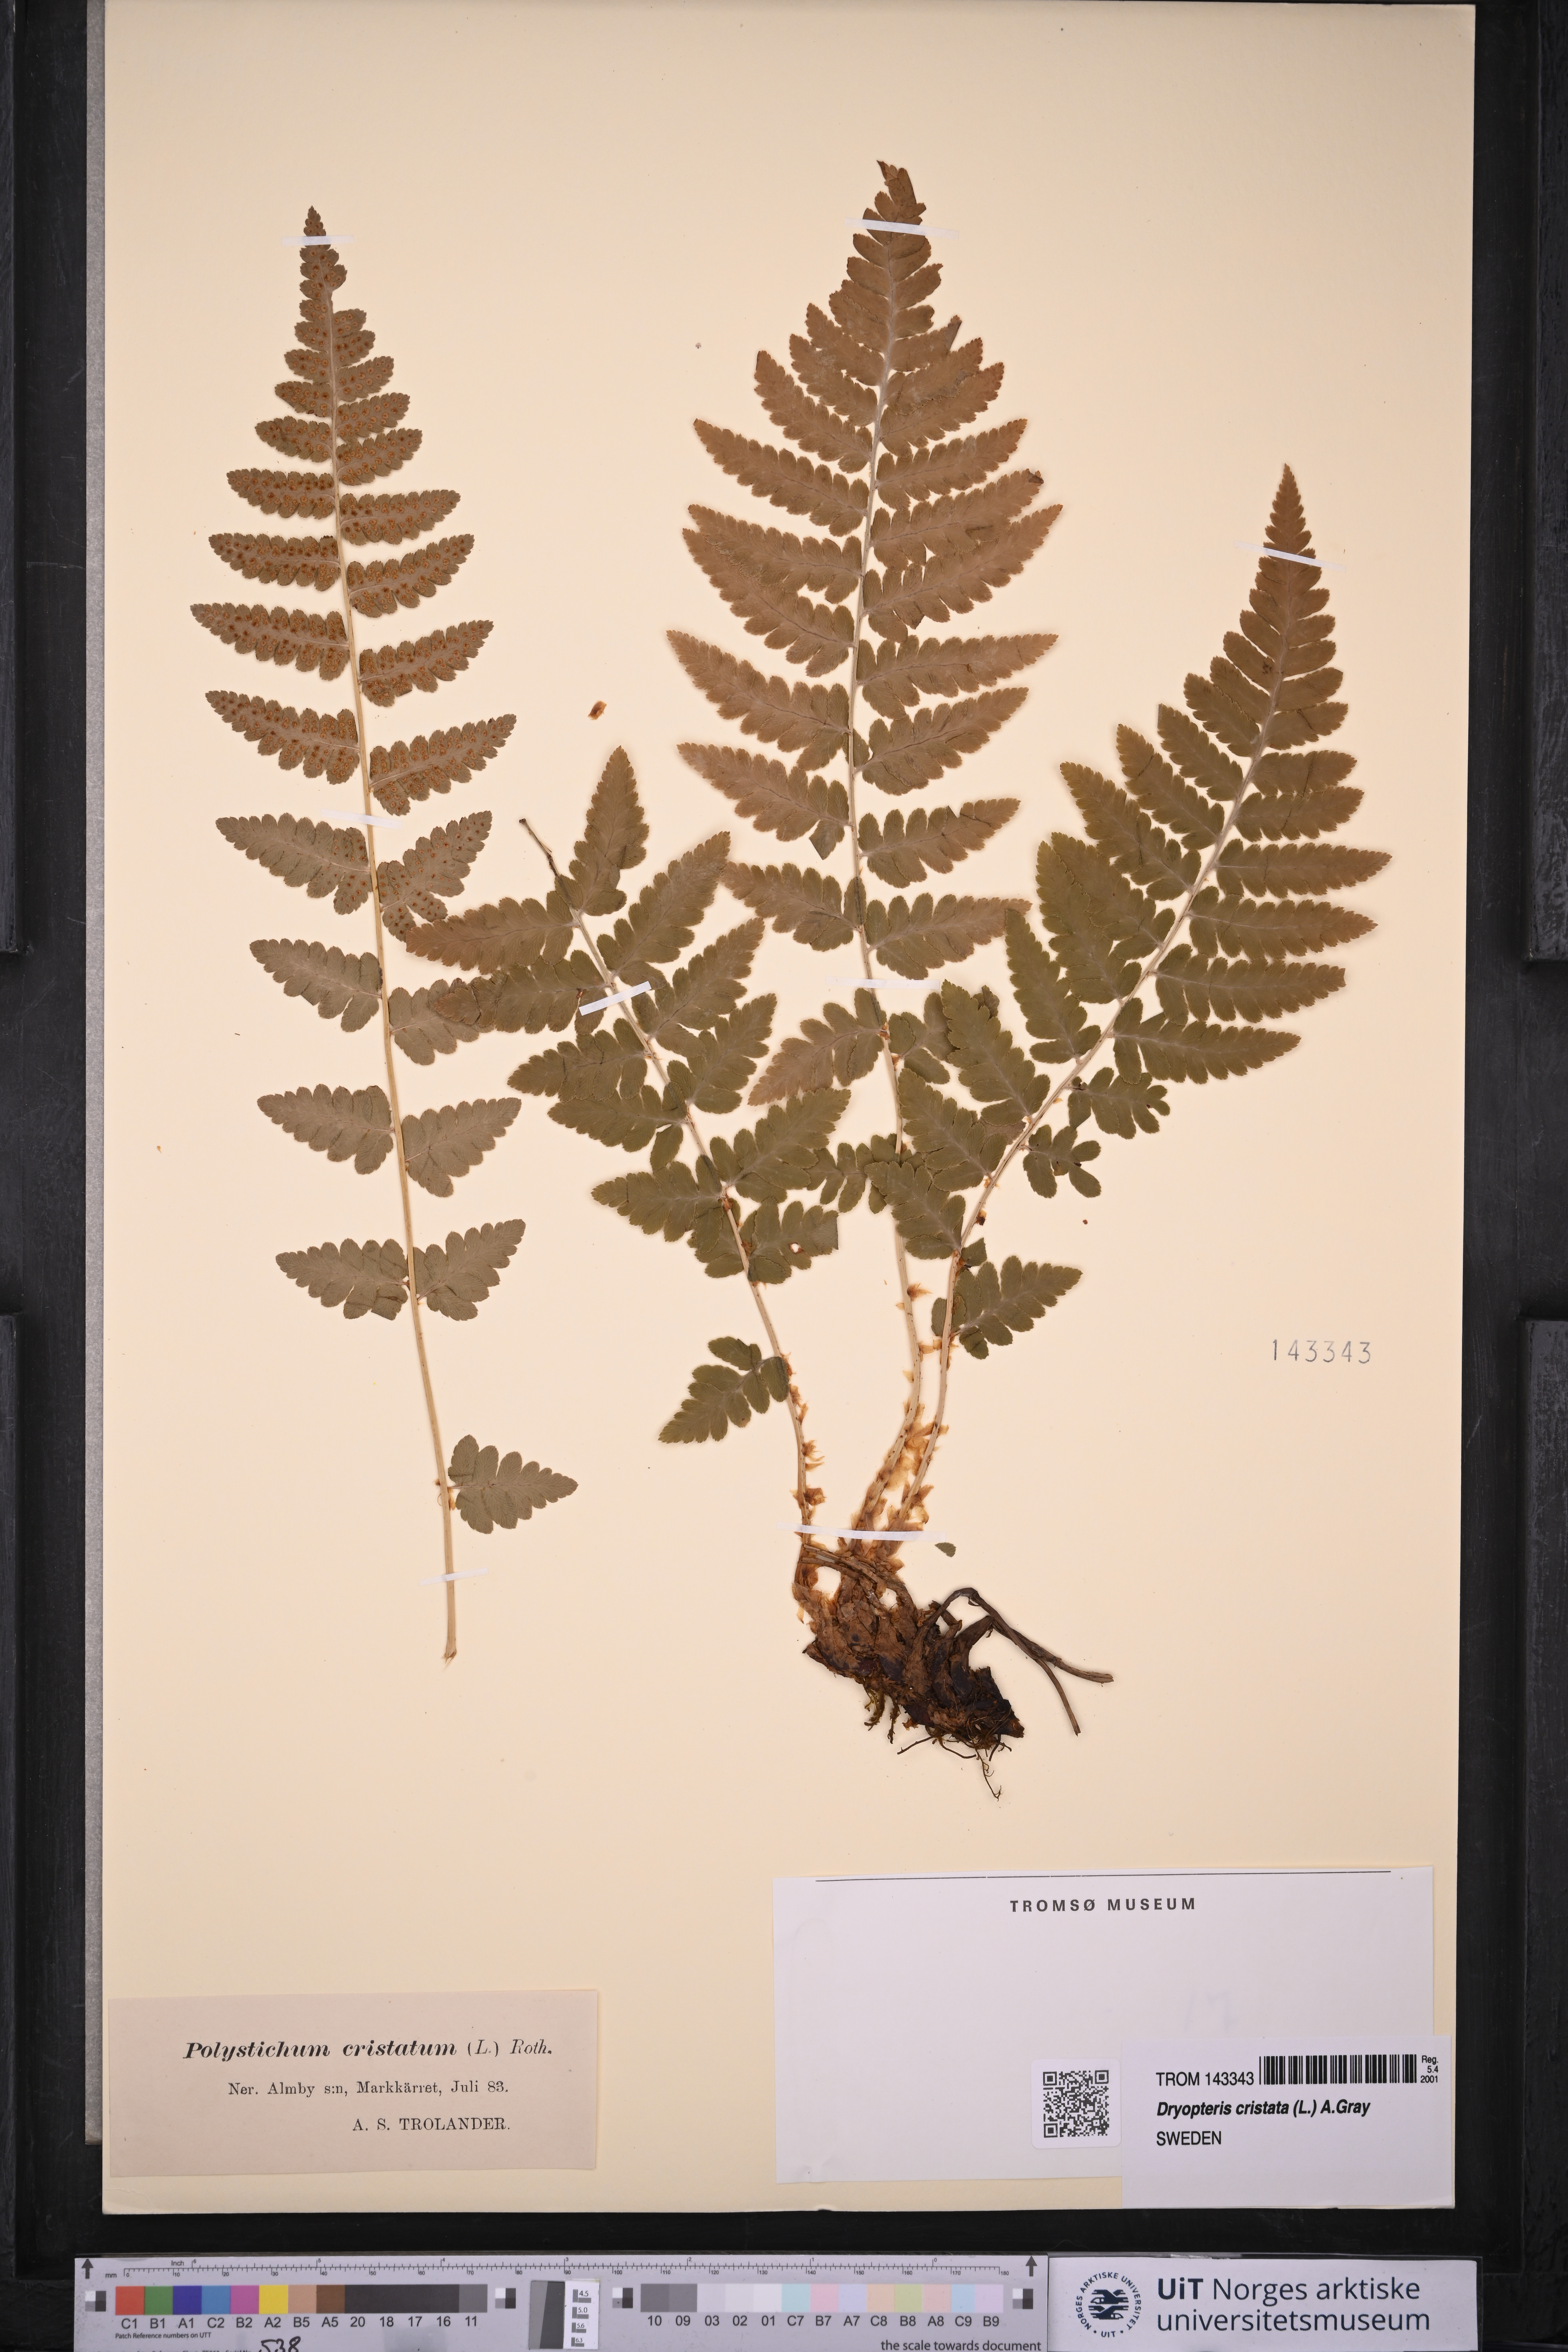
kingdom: Plantae
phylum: Tracheophyta
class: Polypodiopsida
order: Polypodiales
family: Dryopteridaceae
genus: Dryopteris
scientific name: Dryopteris cristata
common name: Crested wood fern
